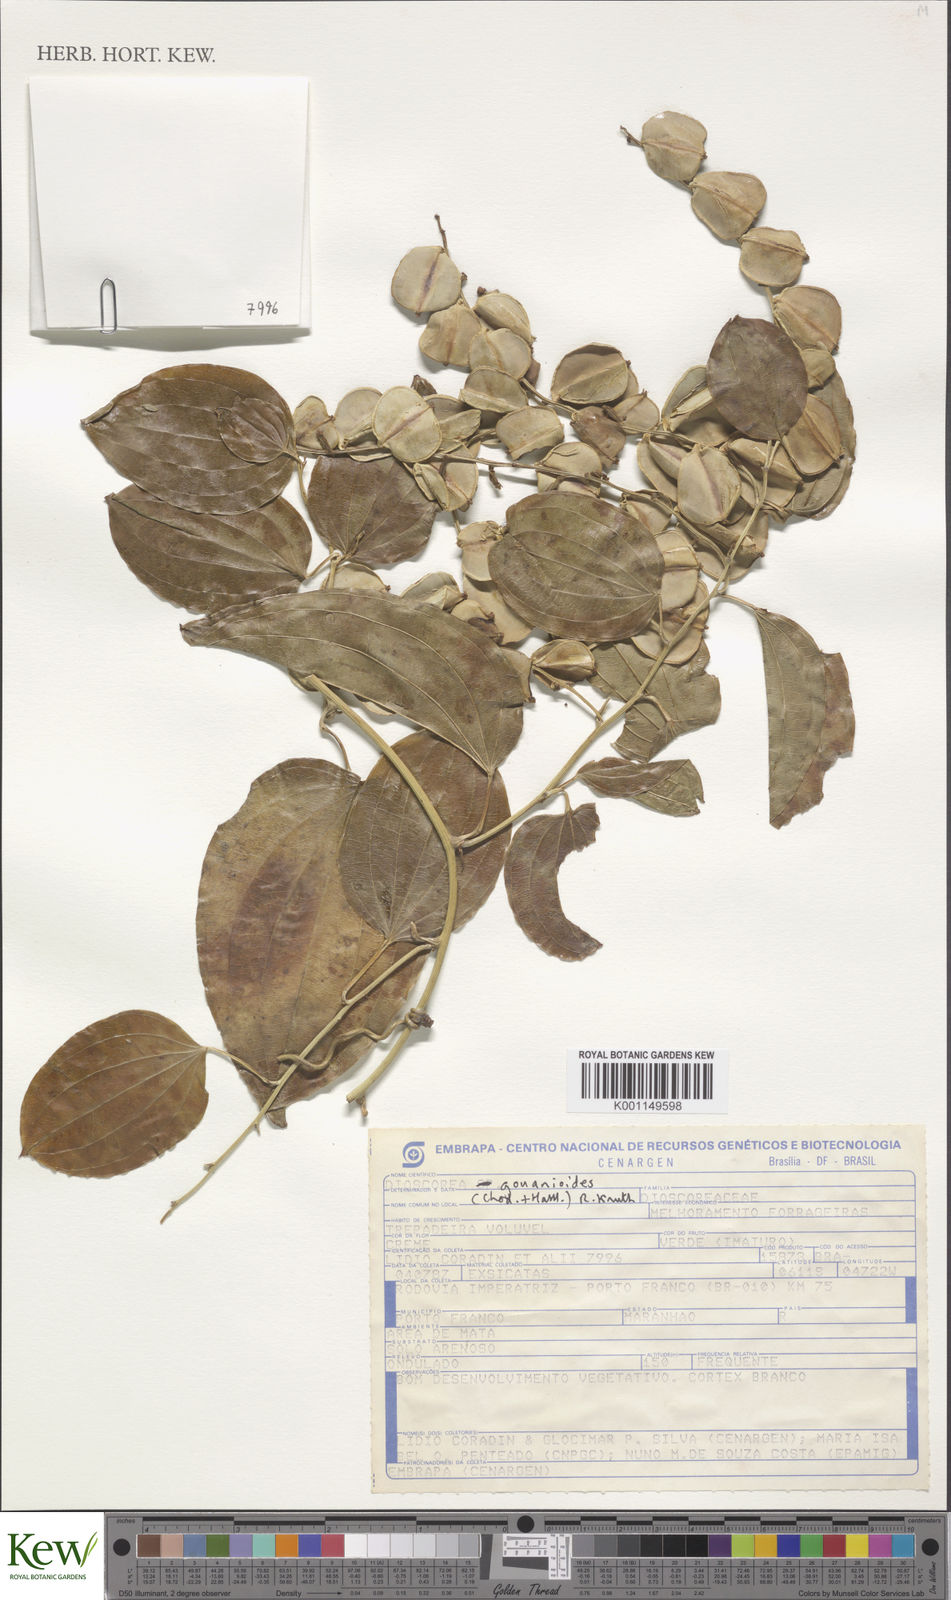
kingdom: Plantae
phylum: Tracheophyta
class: Liliopsida
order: Dioscoreales
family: Dioscoreaceae
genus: Dioscorea
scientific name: Dioscorea acanthogene
